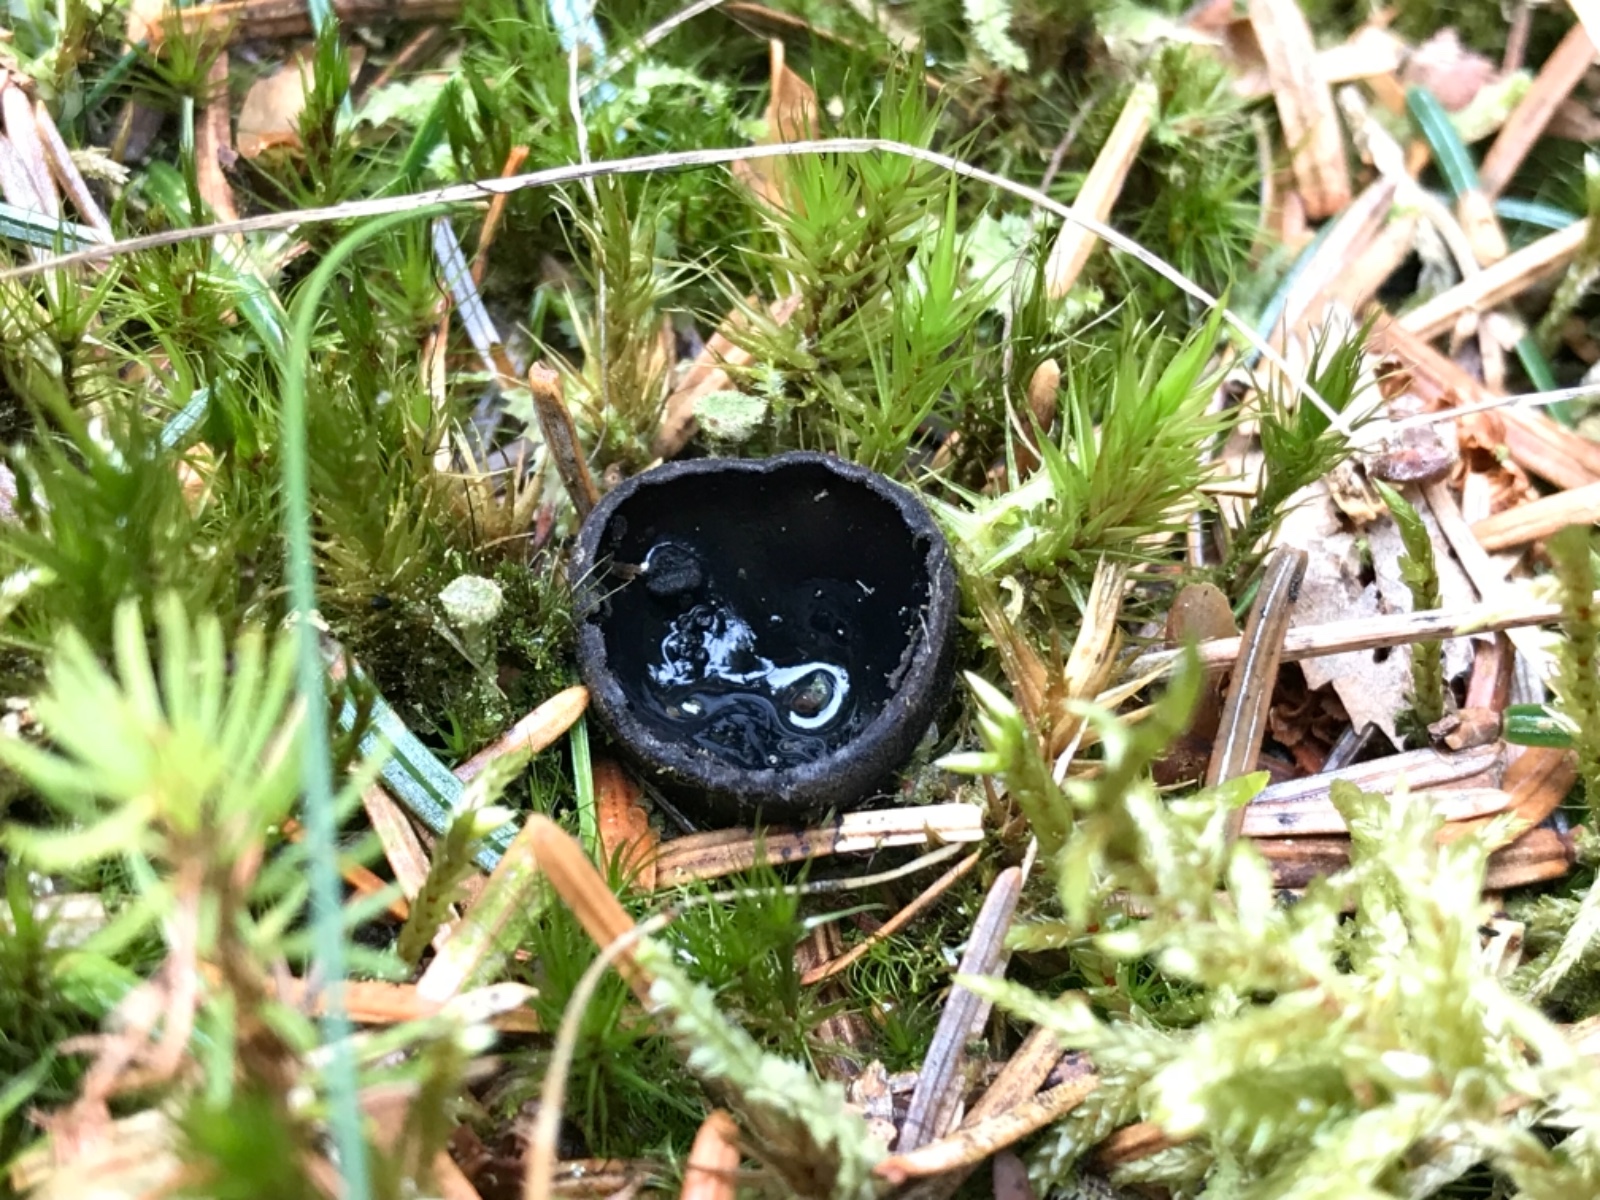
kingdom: Fungi
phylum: Ascomycota
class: Pezizomycetes
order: Pezizales
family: Sarcosomataceae
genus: Pseudoplectania
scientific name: Pseudoplectania nigrella
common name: almindelig sortbæger
